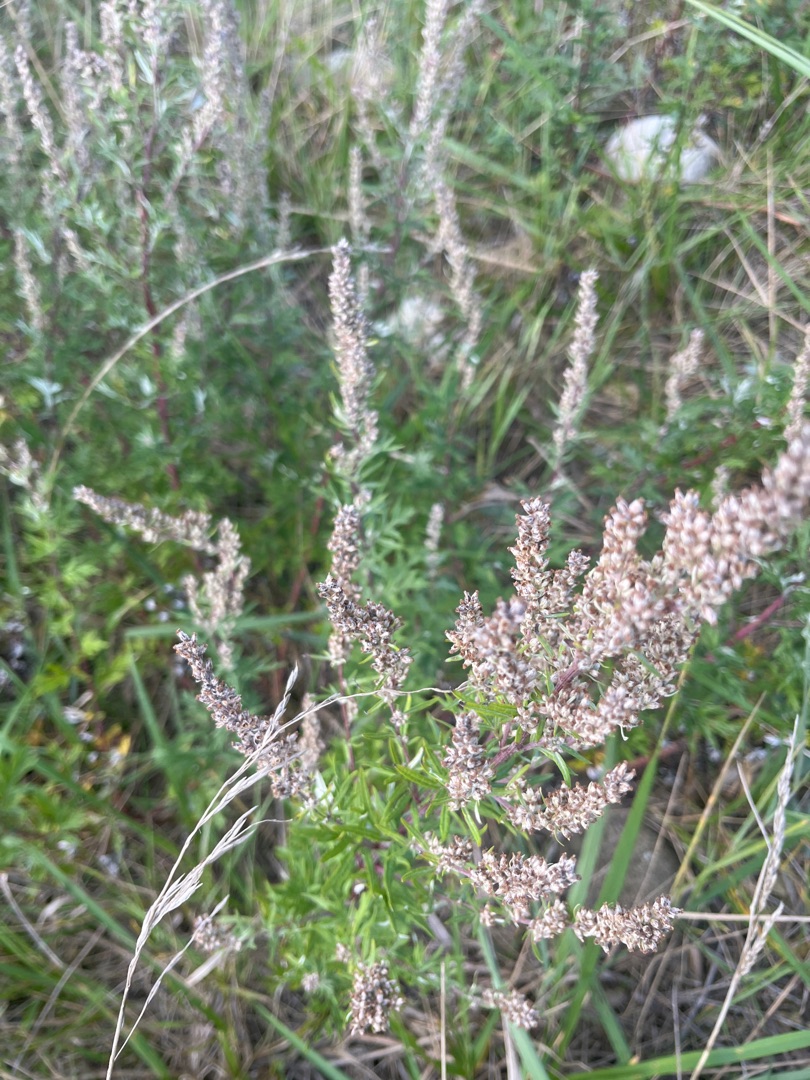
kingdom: Plantae
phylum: Tracheophyta
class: Magnoliopsida
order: Asterales
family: Asteraceae
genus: Artemisia
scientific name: Artemisia vulgaris
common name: Grå-bynke
